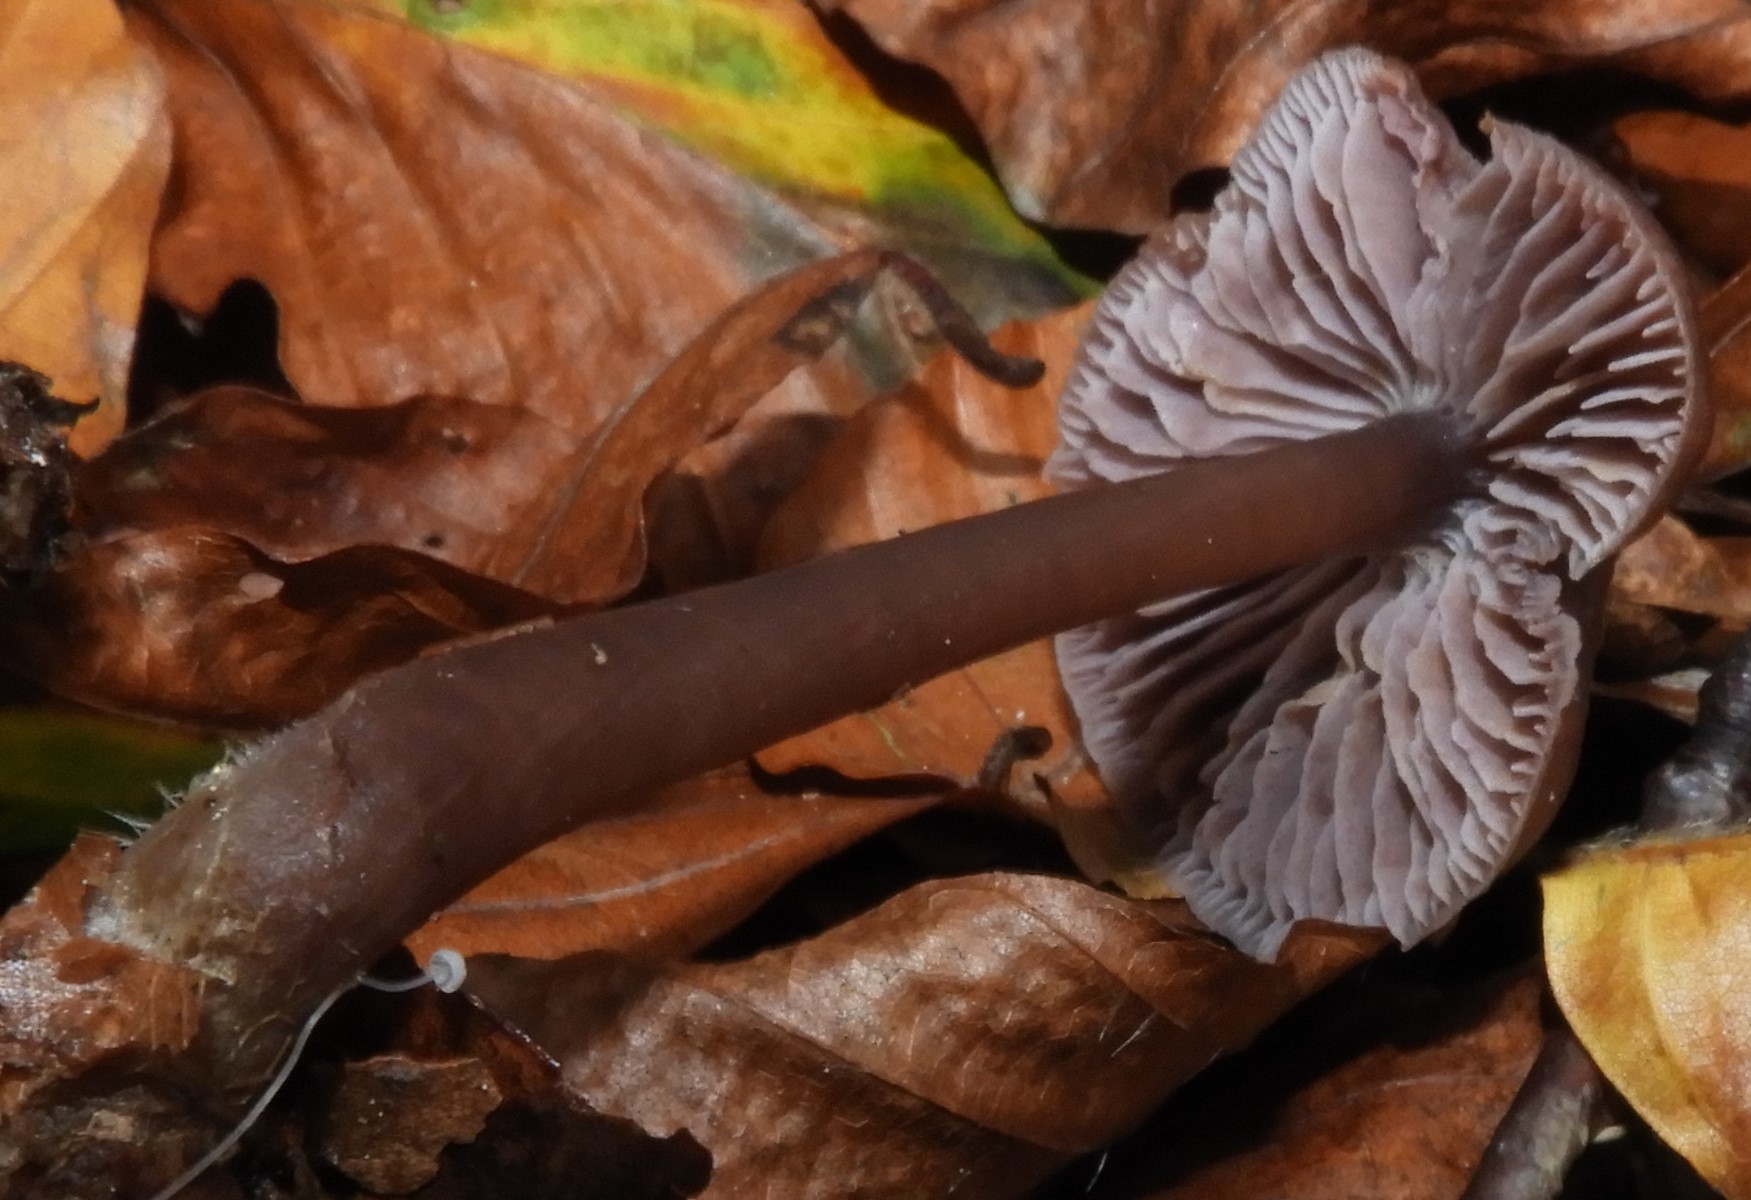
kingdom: Fungi
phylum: Basidiomycota
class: Agaricomycetes
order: Agaricales
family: Mycenaceae
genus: Prunulus
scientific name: Prunulus diosmus
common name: tobaks-huesvamp
